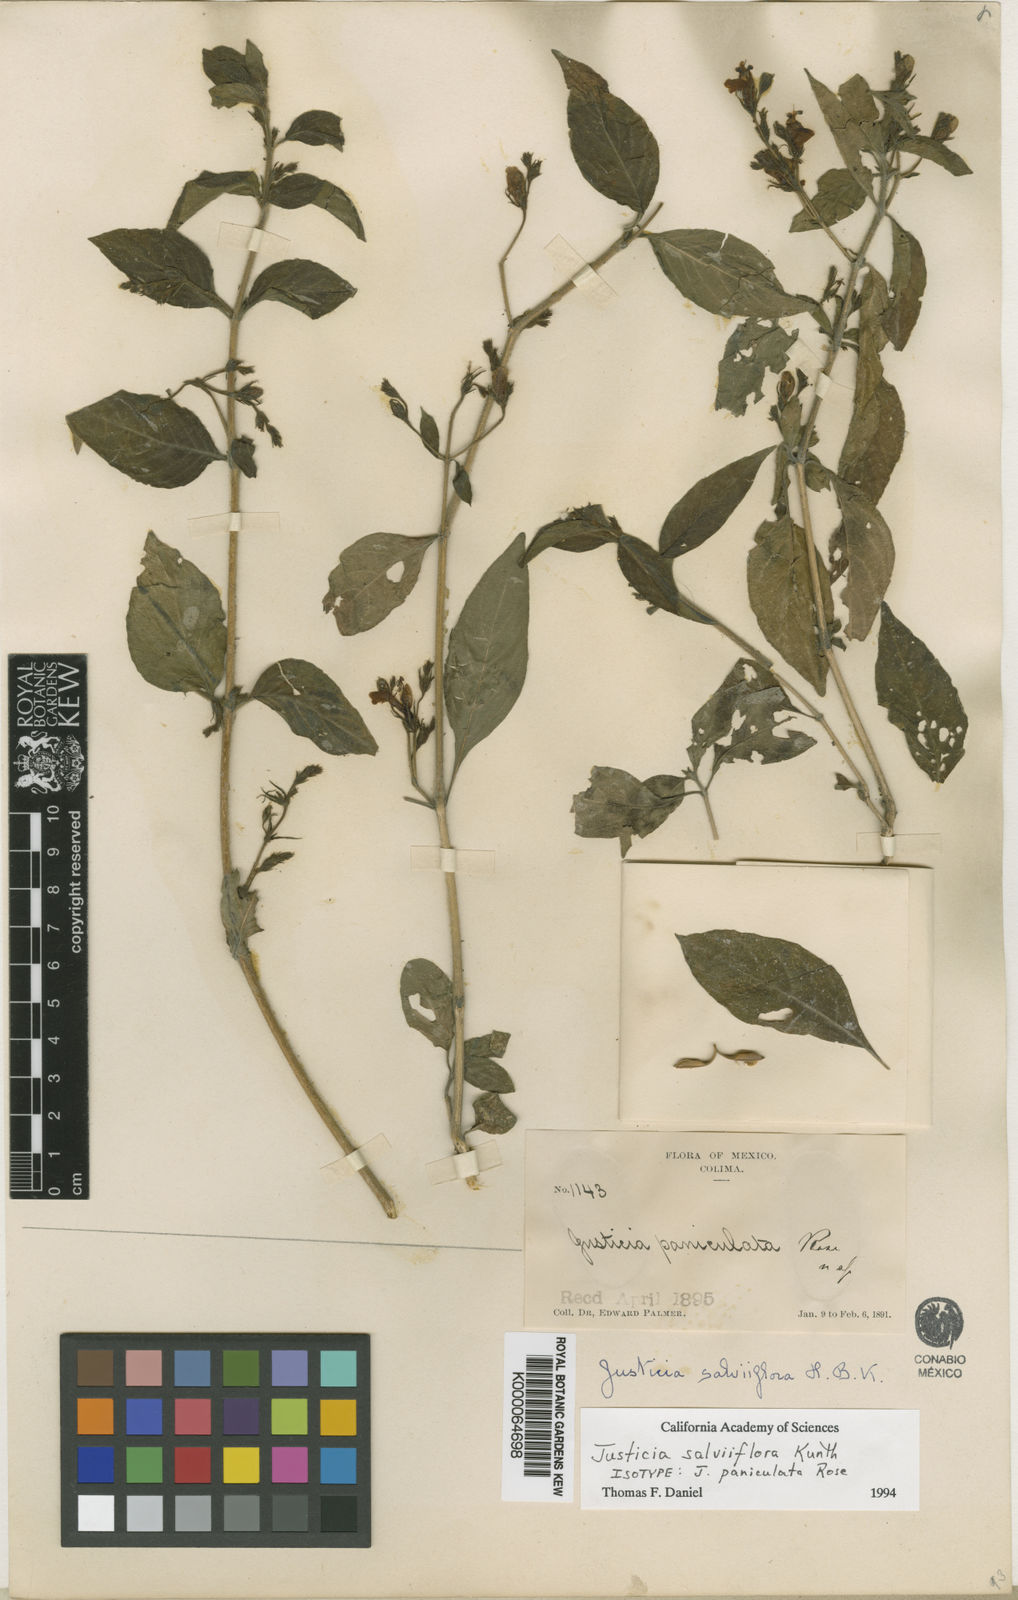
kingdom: Plantae
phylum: Tracheophyta
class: Magnoliopsida
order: Lamiales
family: Acanthaceae
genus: Justicia
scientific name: Justicia salviiflora
